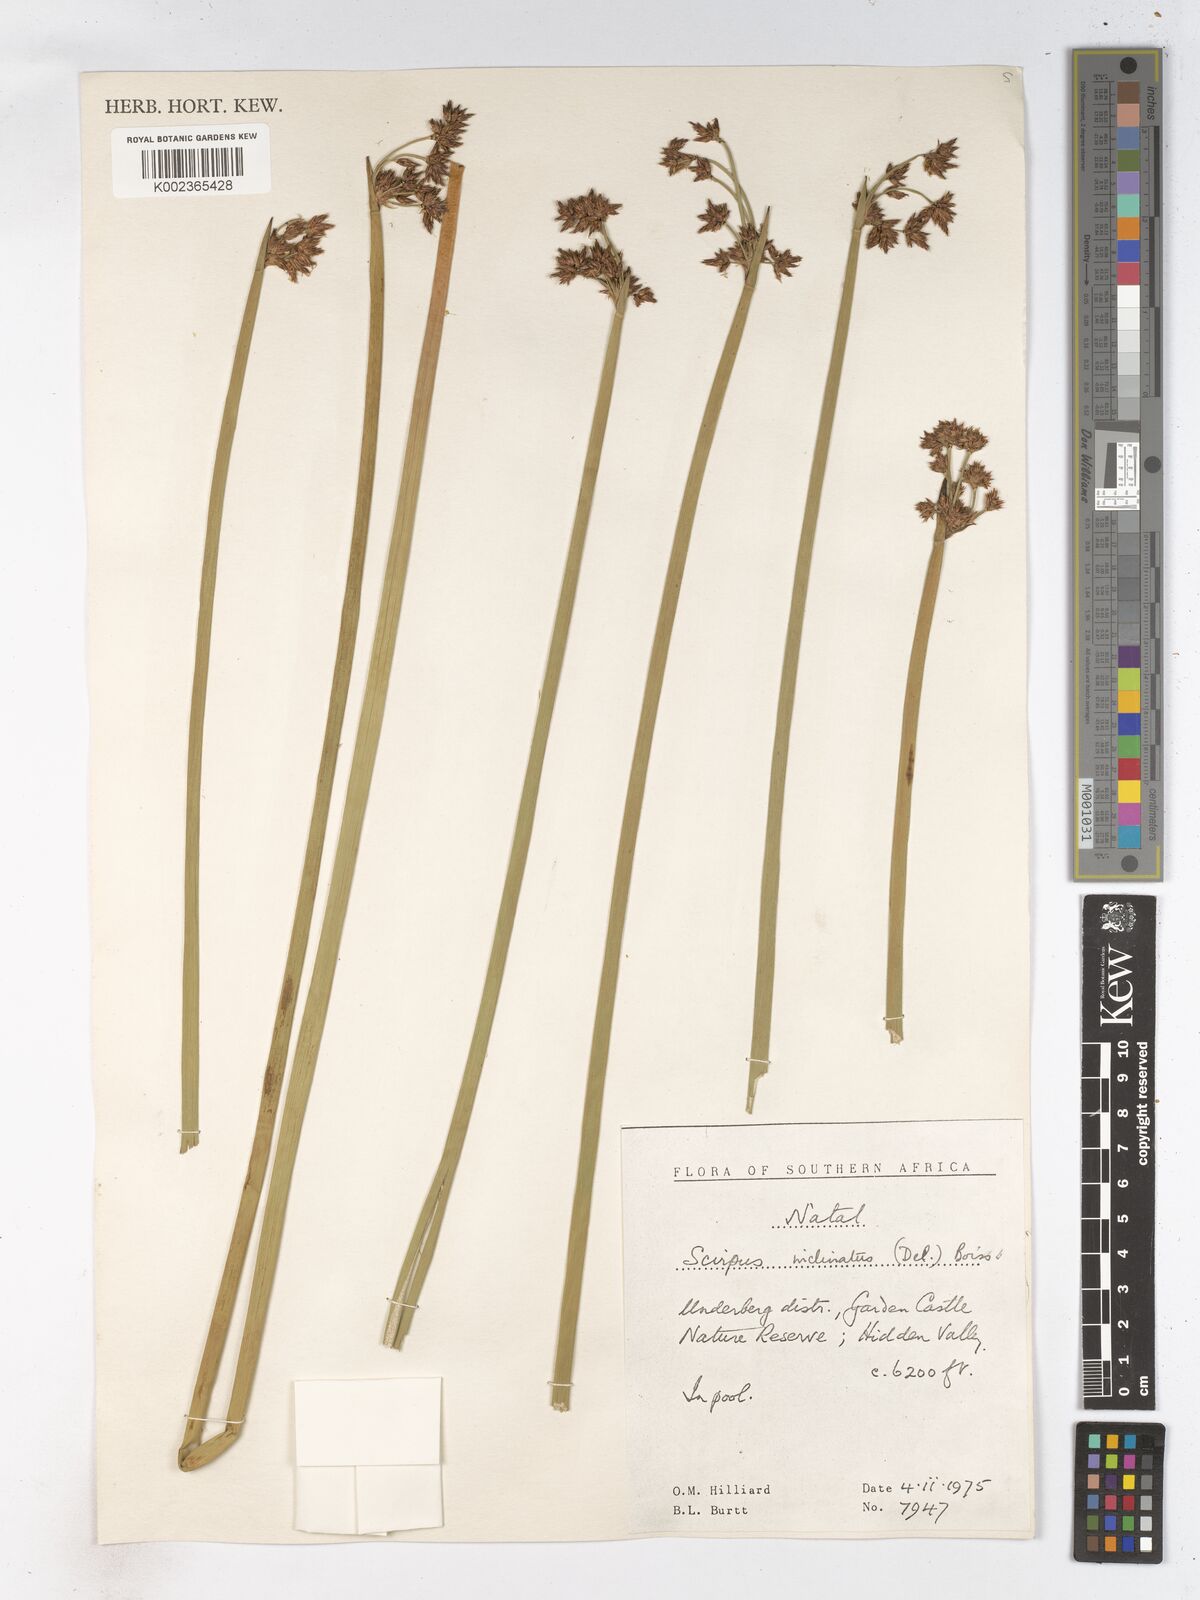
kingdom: Plantae
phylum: Tracheophyta
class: Liliopsida
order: Poales
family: Cyperaceae
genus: Schoenoplectiella
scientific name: Schoenoplectiella brachyceras
